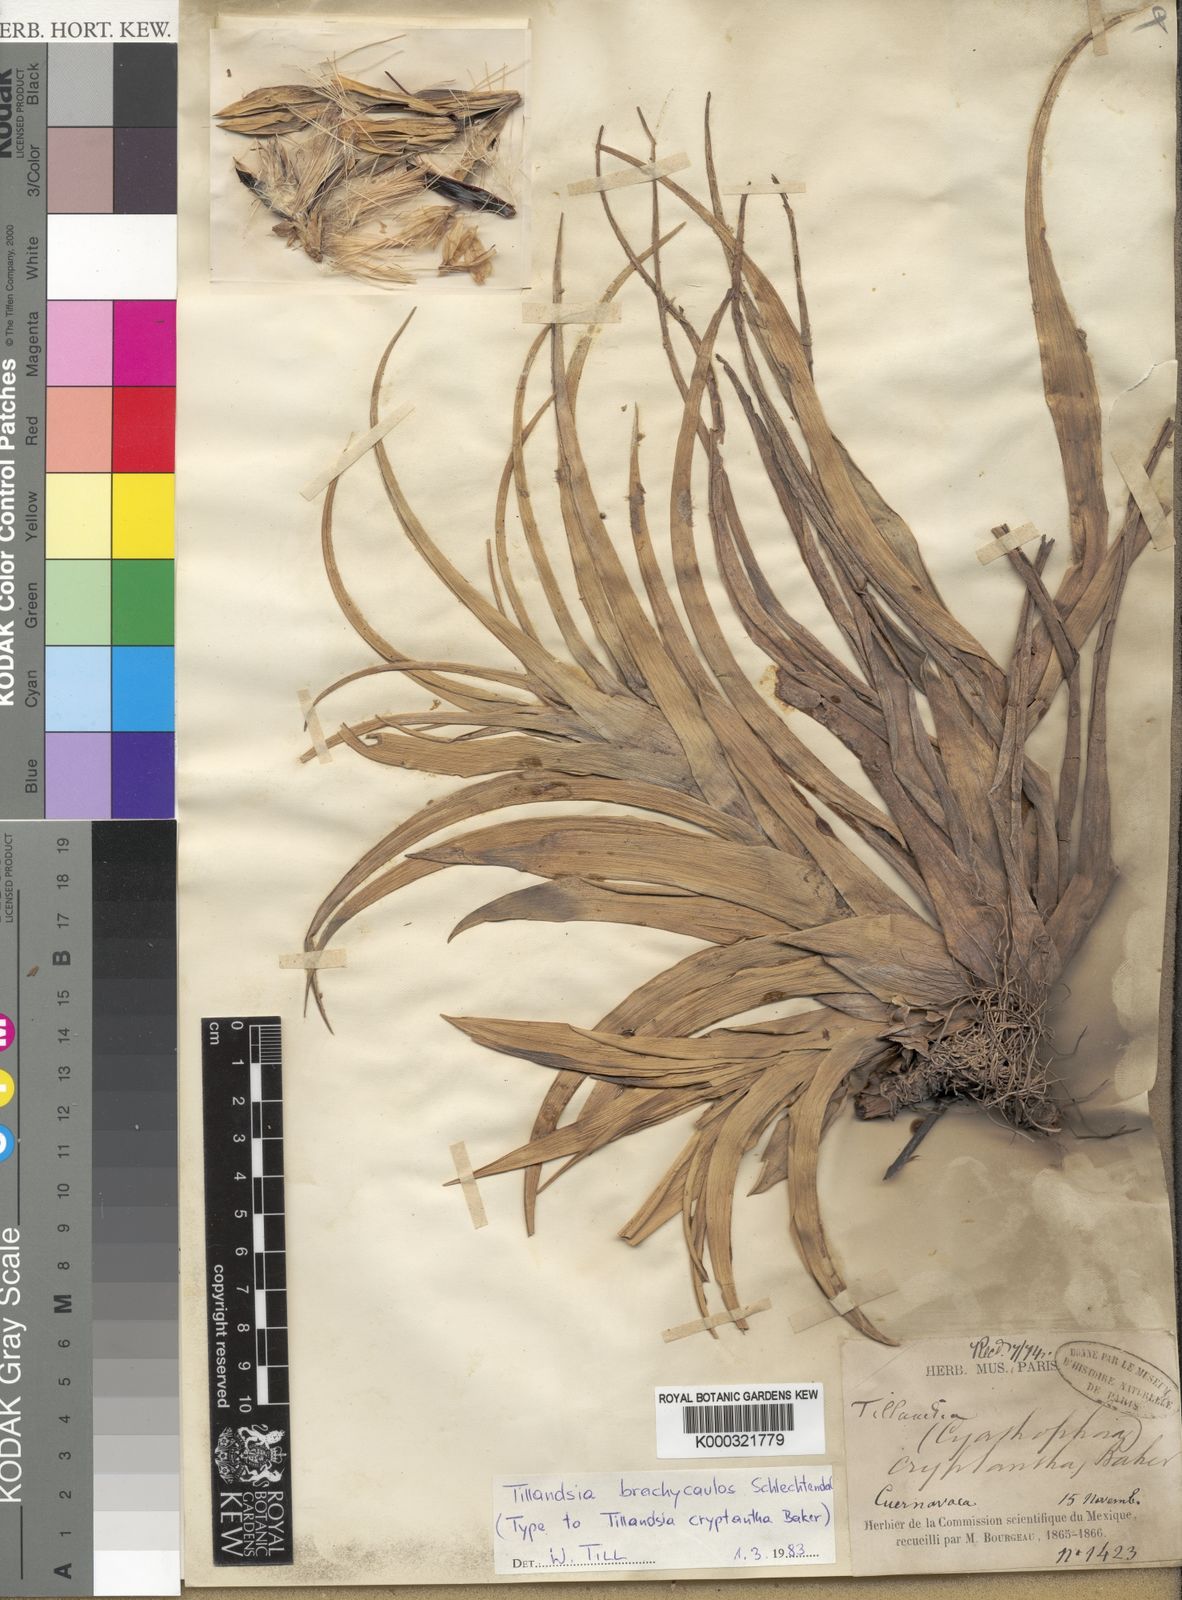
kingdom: Plantae
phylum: Tracheophyta
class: Liliopsida
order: Poales
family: Bromeliaceae
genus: Tillandsia
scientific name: Tillandsia brachycaulos
